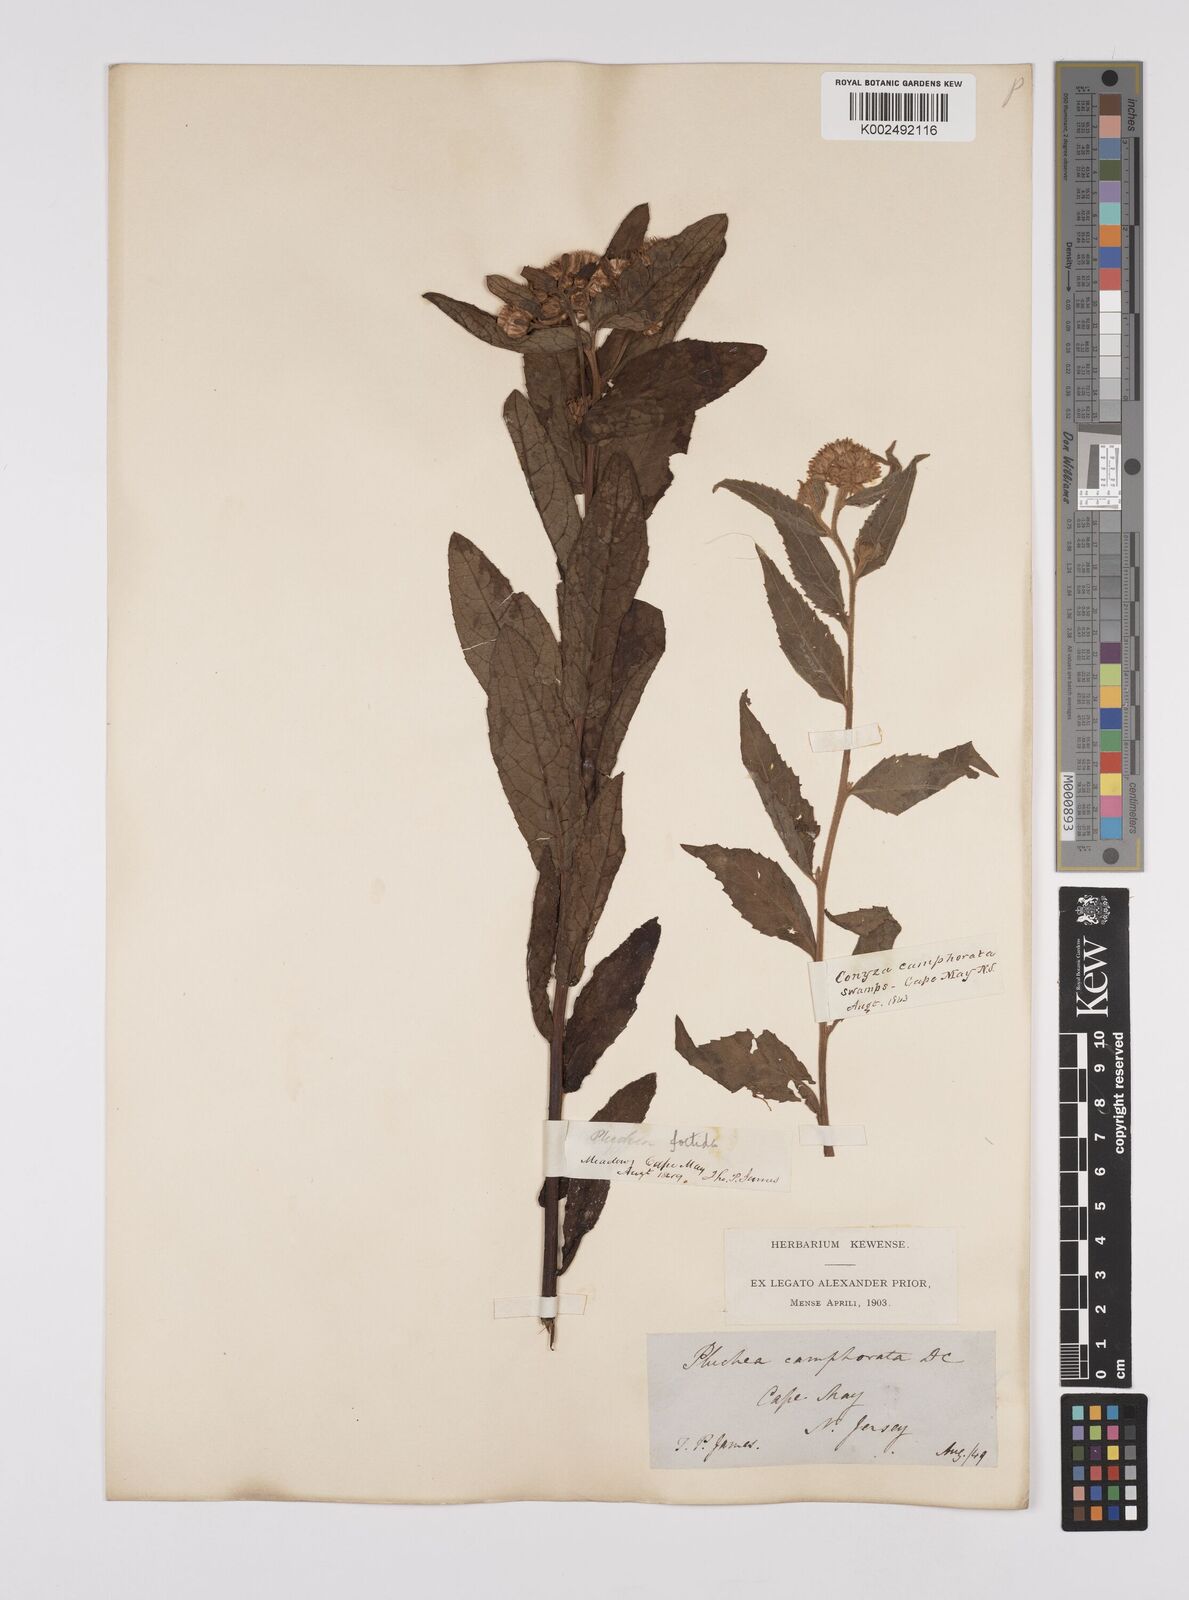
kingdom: Plantae
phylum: Tracheophyta
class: Magnoliopsida
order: Asterales
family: Asteraceae
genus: Pluchea
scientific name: Pluchea camphorata
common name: Camphor pluchea
